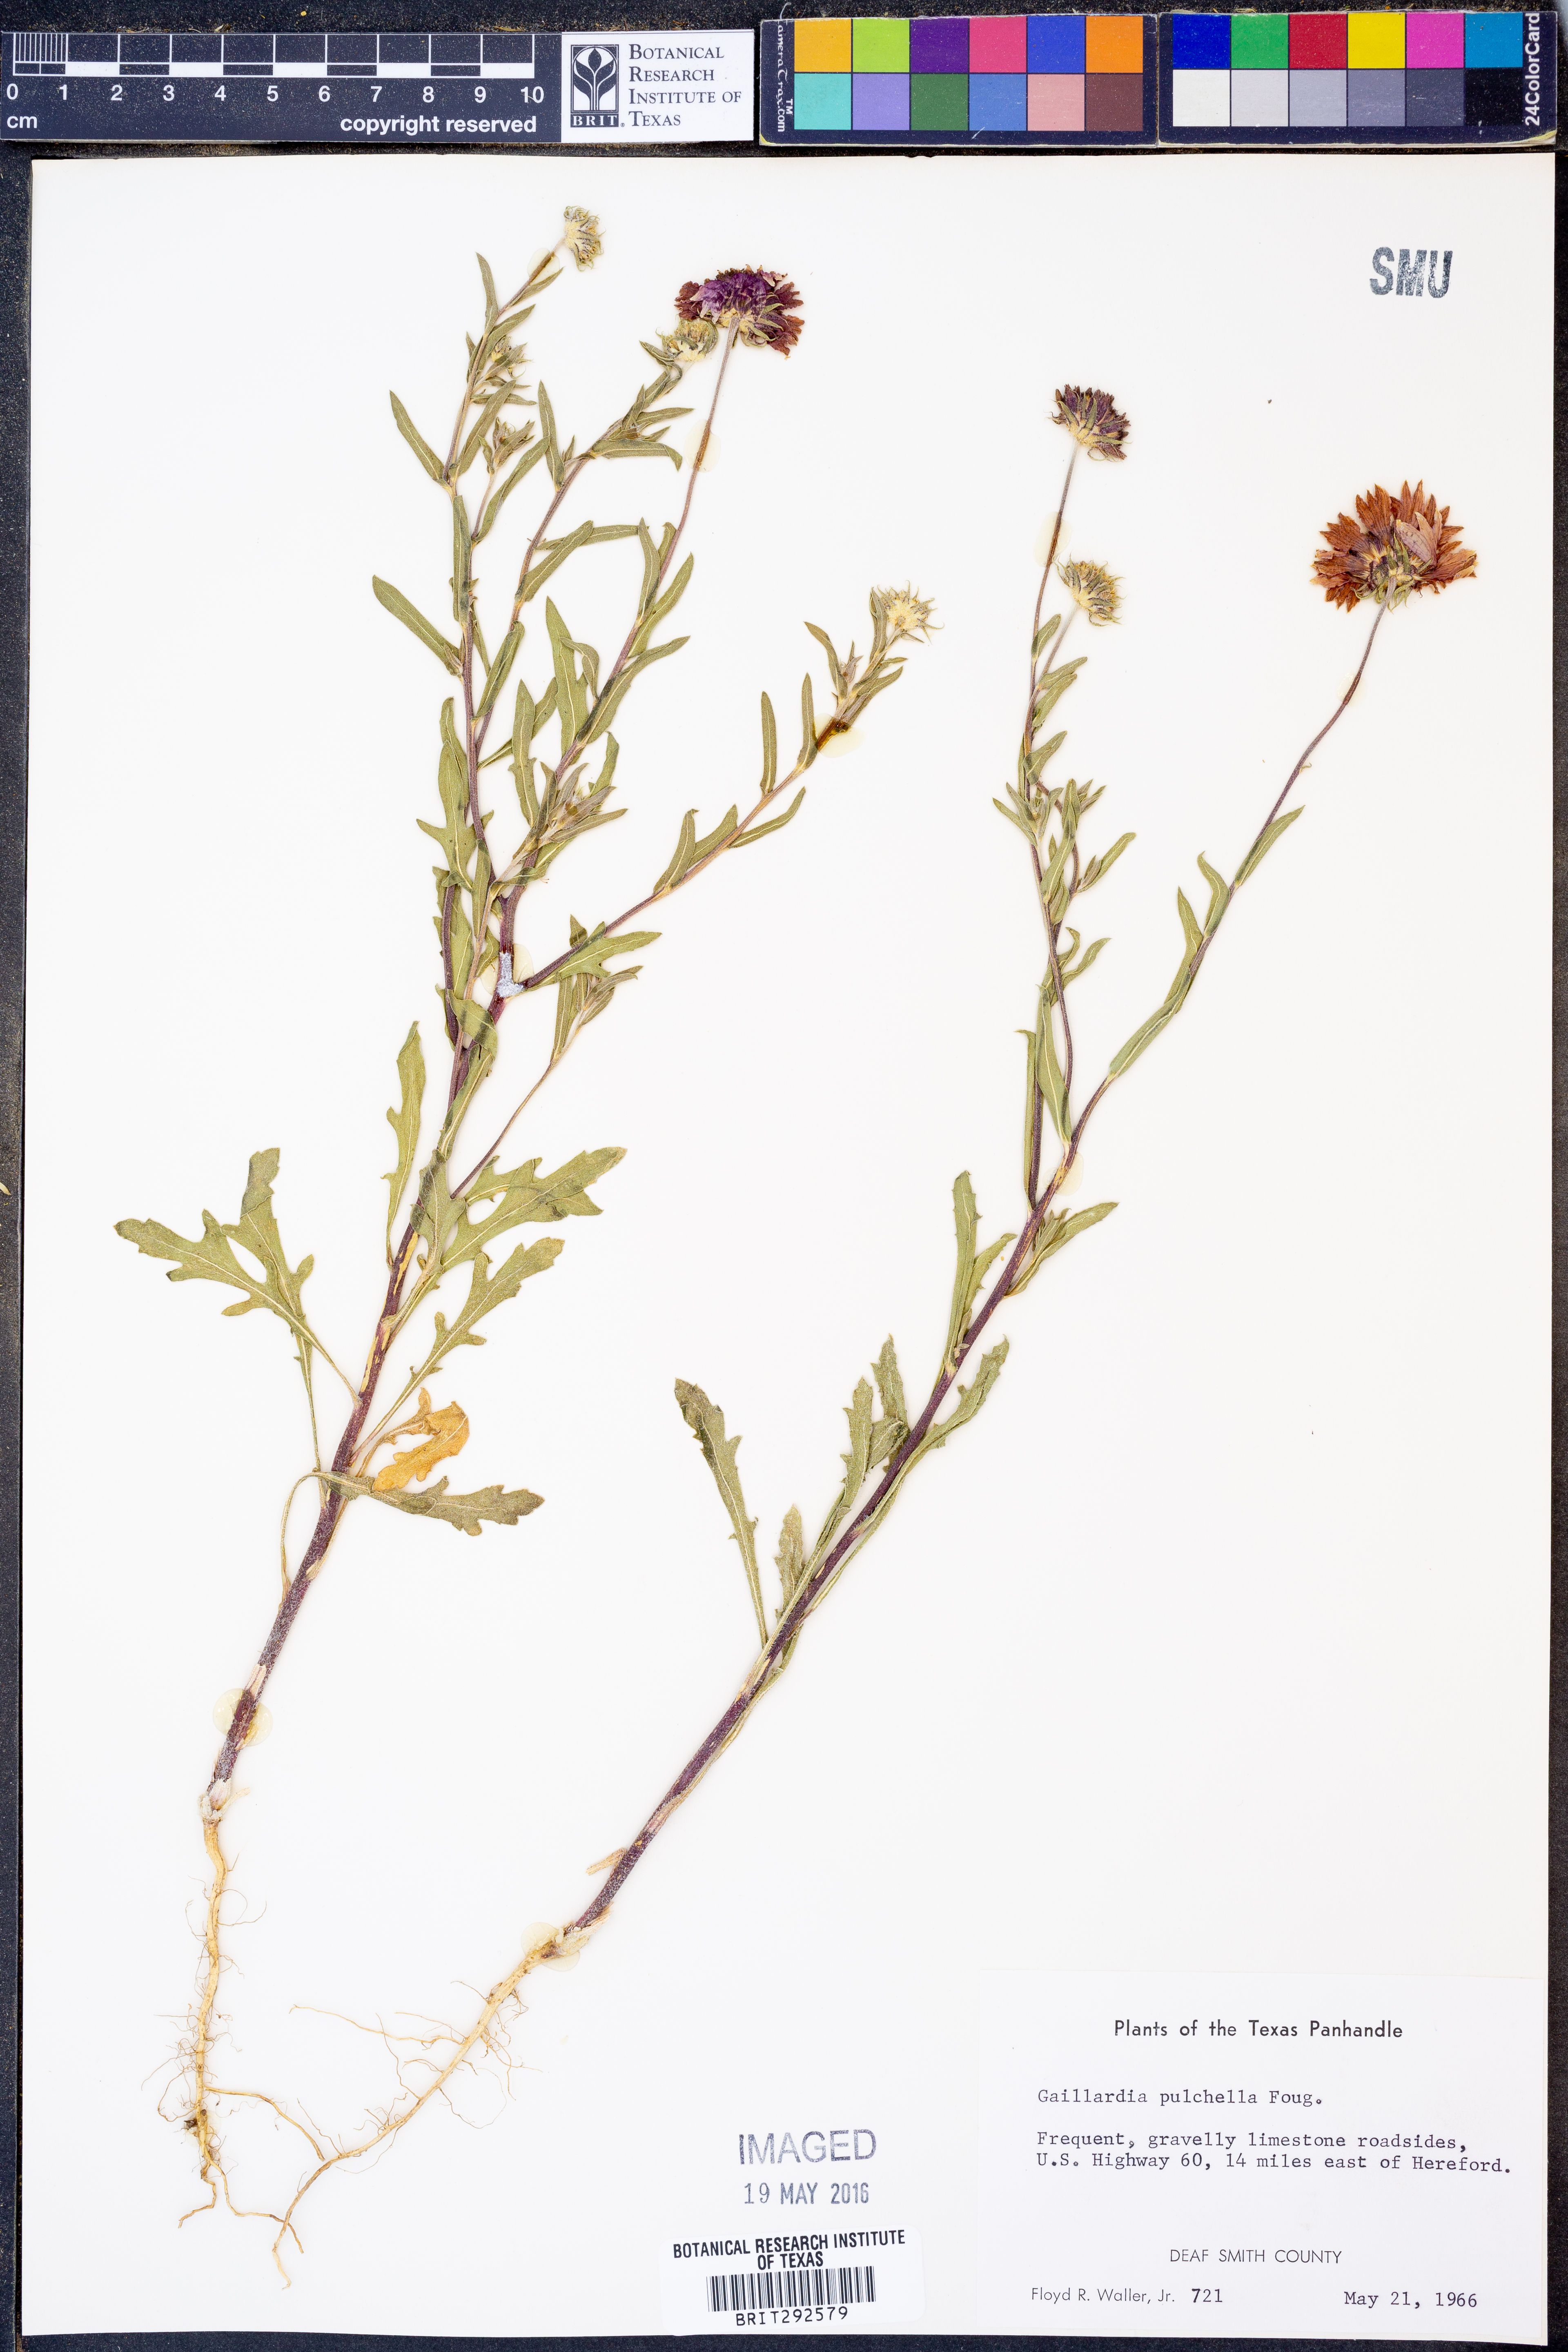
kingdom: Plantae
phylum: Tracheophyta
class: Magnoliopsida
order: Asterales
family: Asteraceae
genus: Gaillardia
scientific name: Gaillardia pulchella
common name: Firewheel
